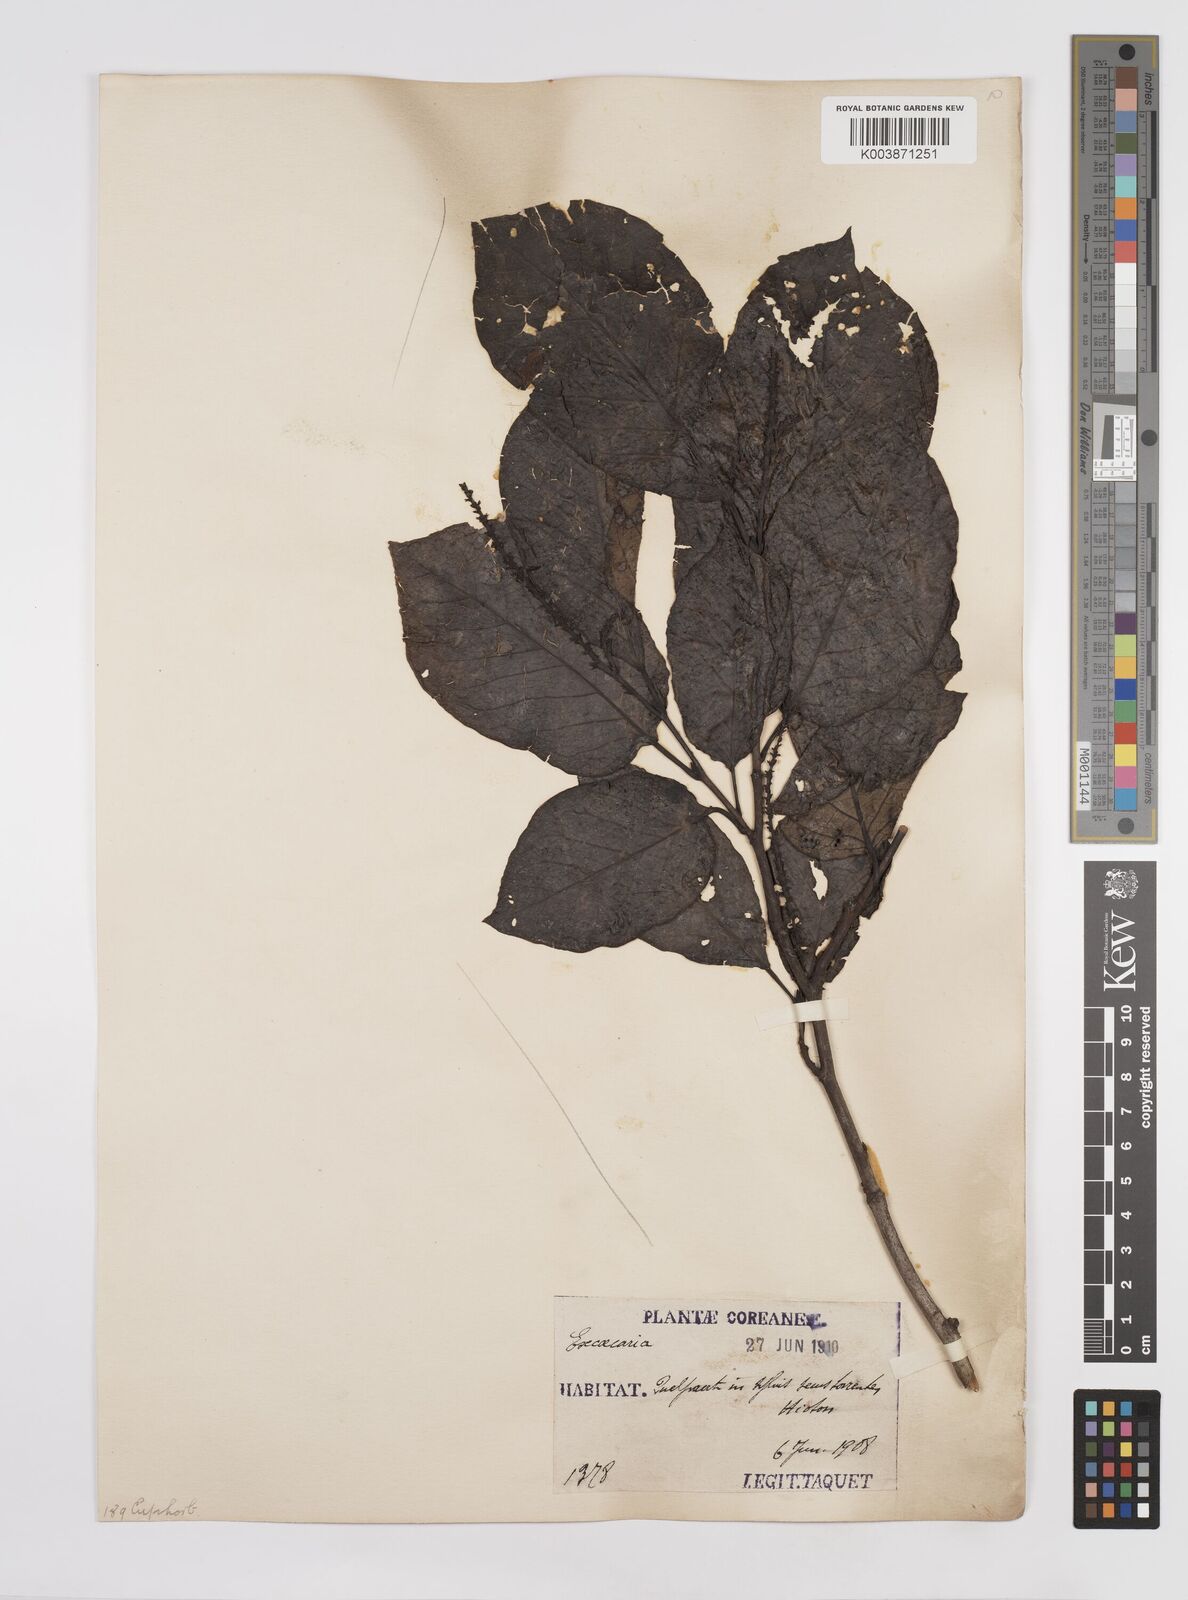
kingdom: Plantae
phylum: Tracheophyta
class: Magnoliopsida
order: Malpighiales
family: Euphorbiaceae
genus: Neoshirakia
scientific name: Neoshirakia japonica
